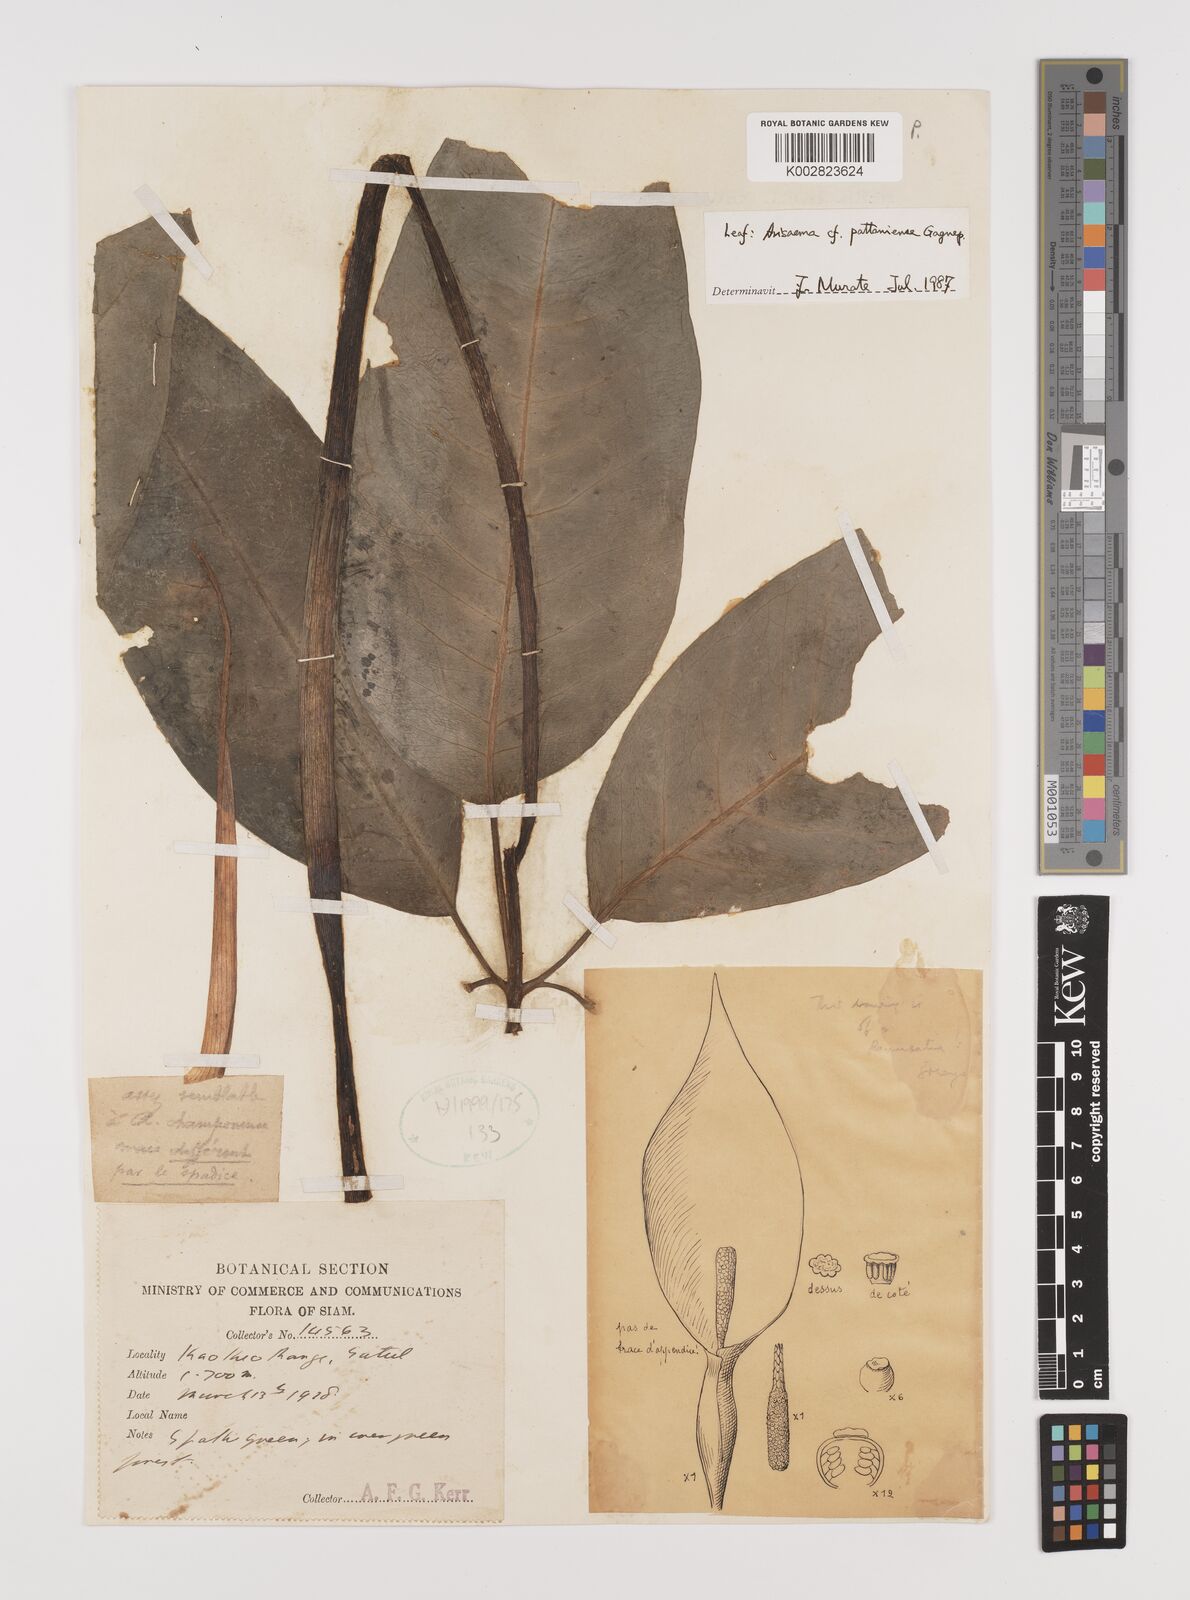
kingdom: Plantae
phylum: Tracheophyta
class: Liliopsida
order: Alismatales
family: Araceae
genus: Arisaema
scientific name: Arisaema pattaniense
